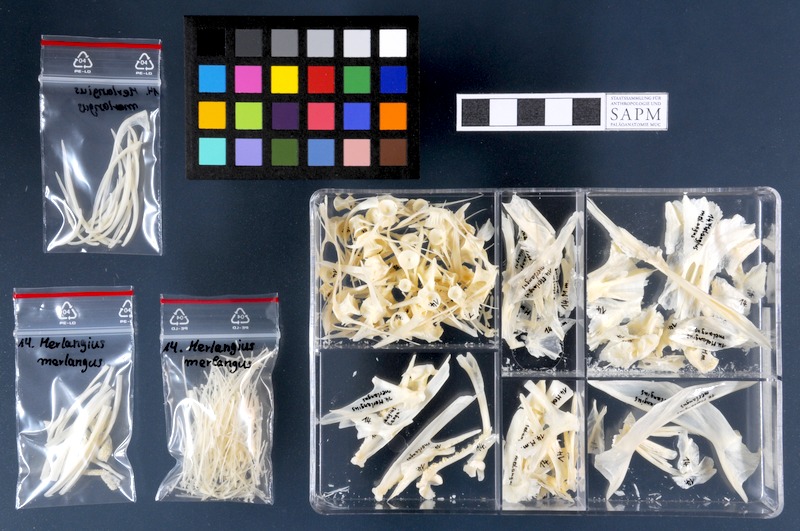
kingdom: Animalia
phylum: Chordata
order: Gadiformes
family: Gadidae
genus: Merlangius
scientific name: Merlangius merlangus
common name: Whiting
